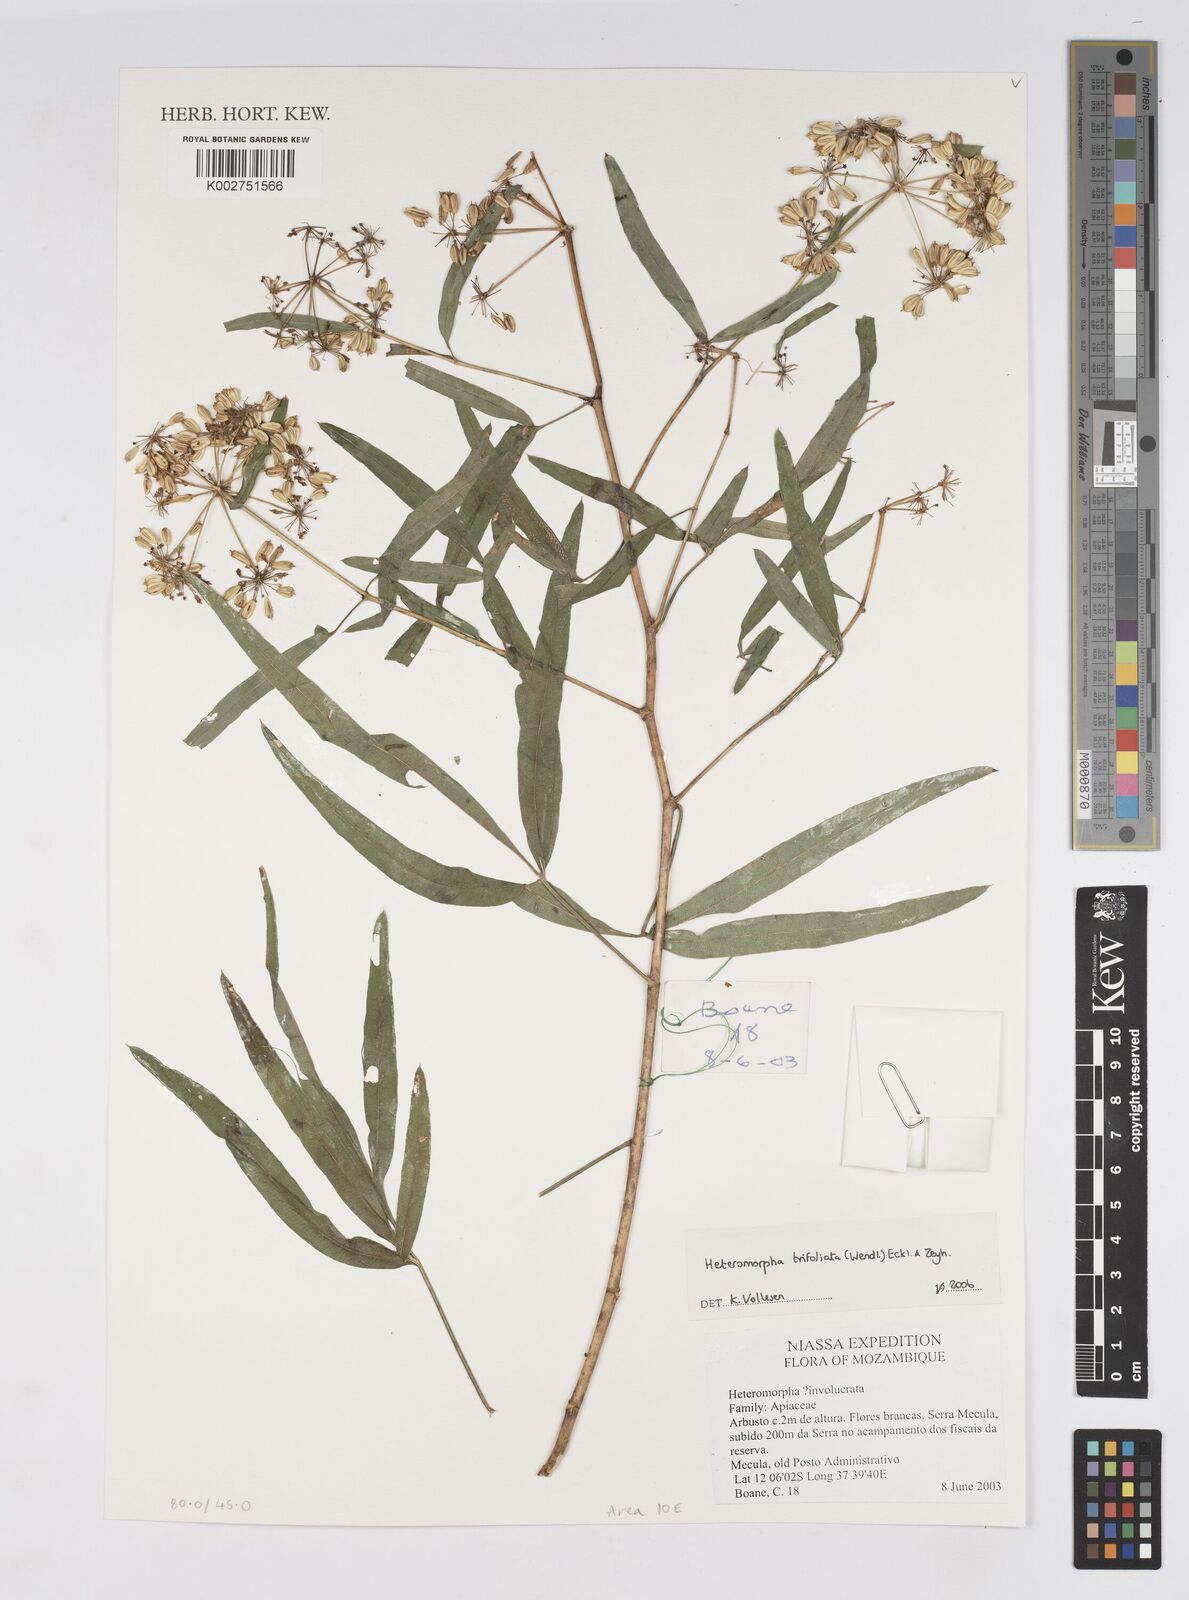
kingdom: Plantae
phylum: Tracheophyta
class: Magnoliopsida
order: Apiales
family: Apiaceae
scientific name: Apiaceae
